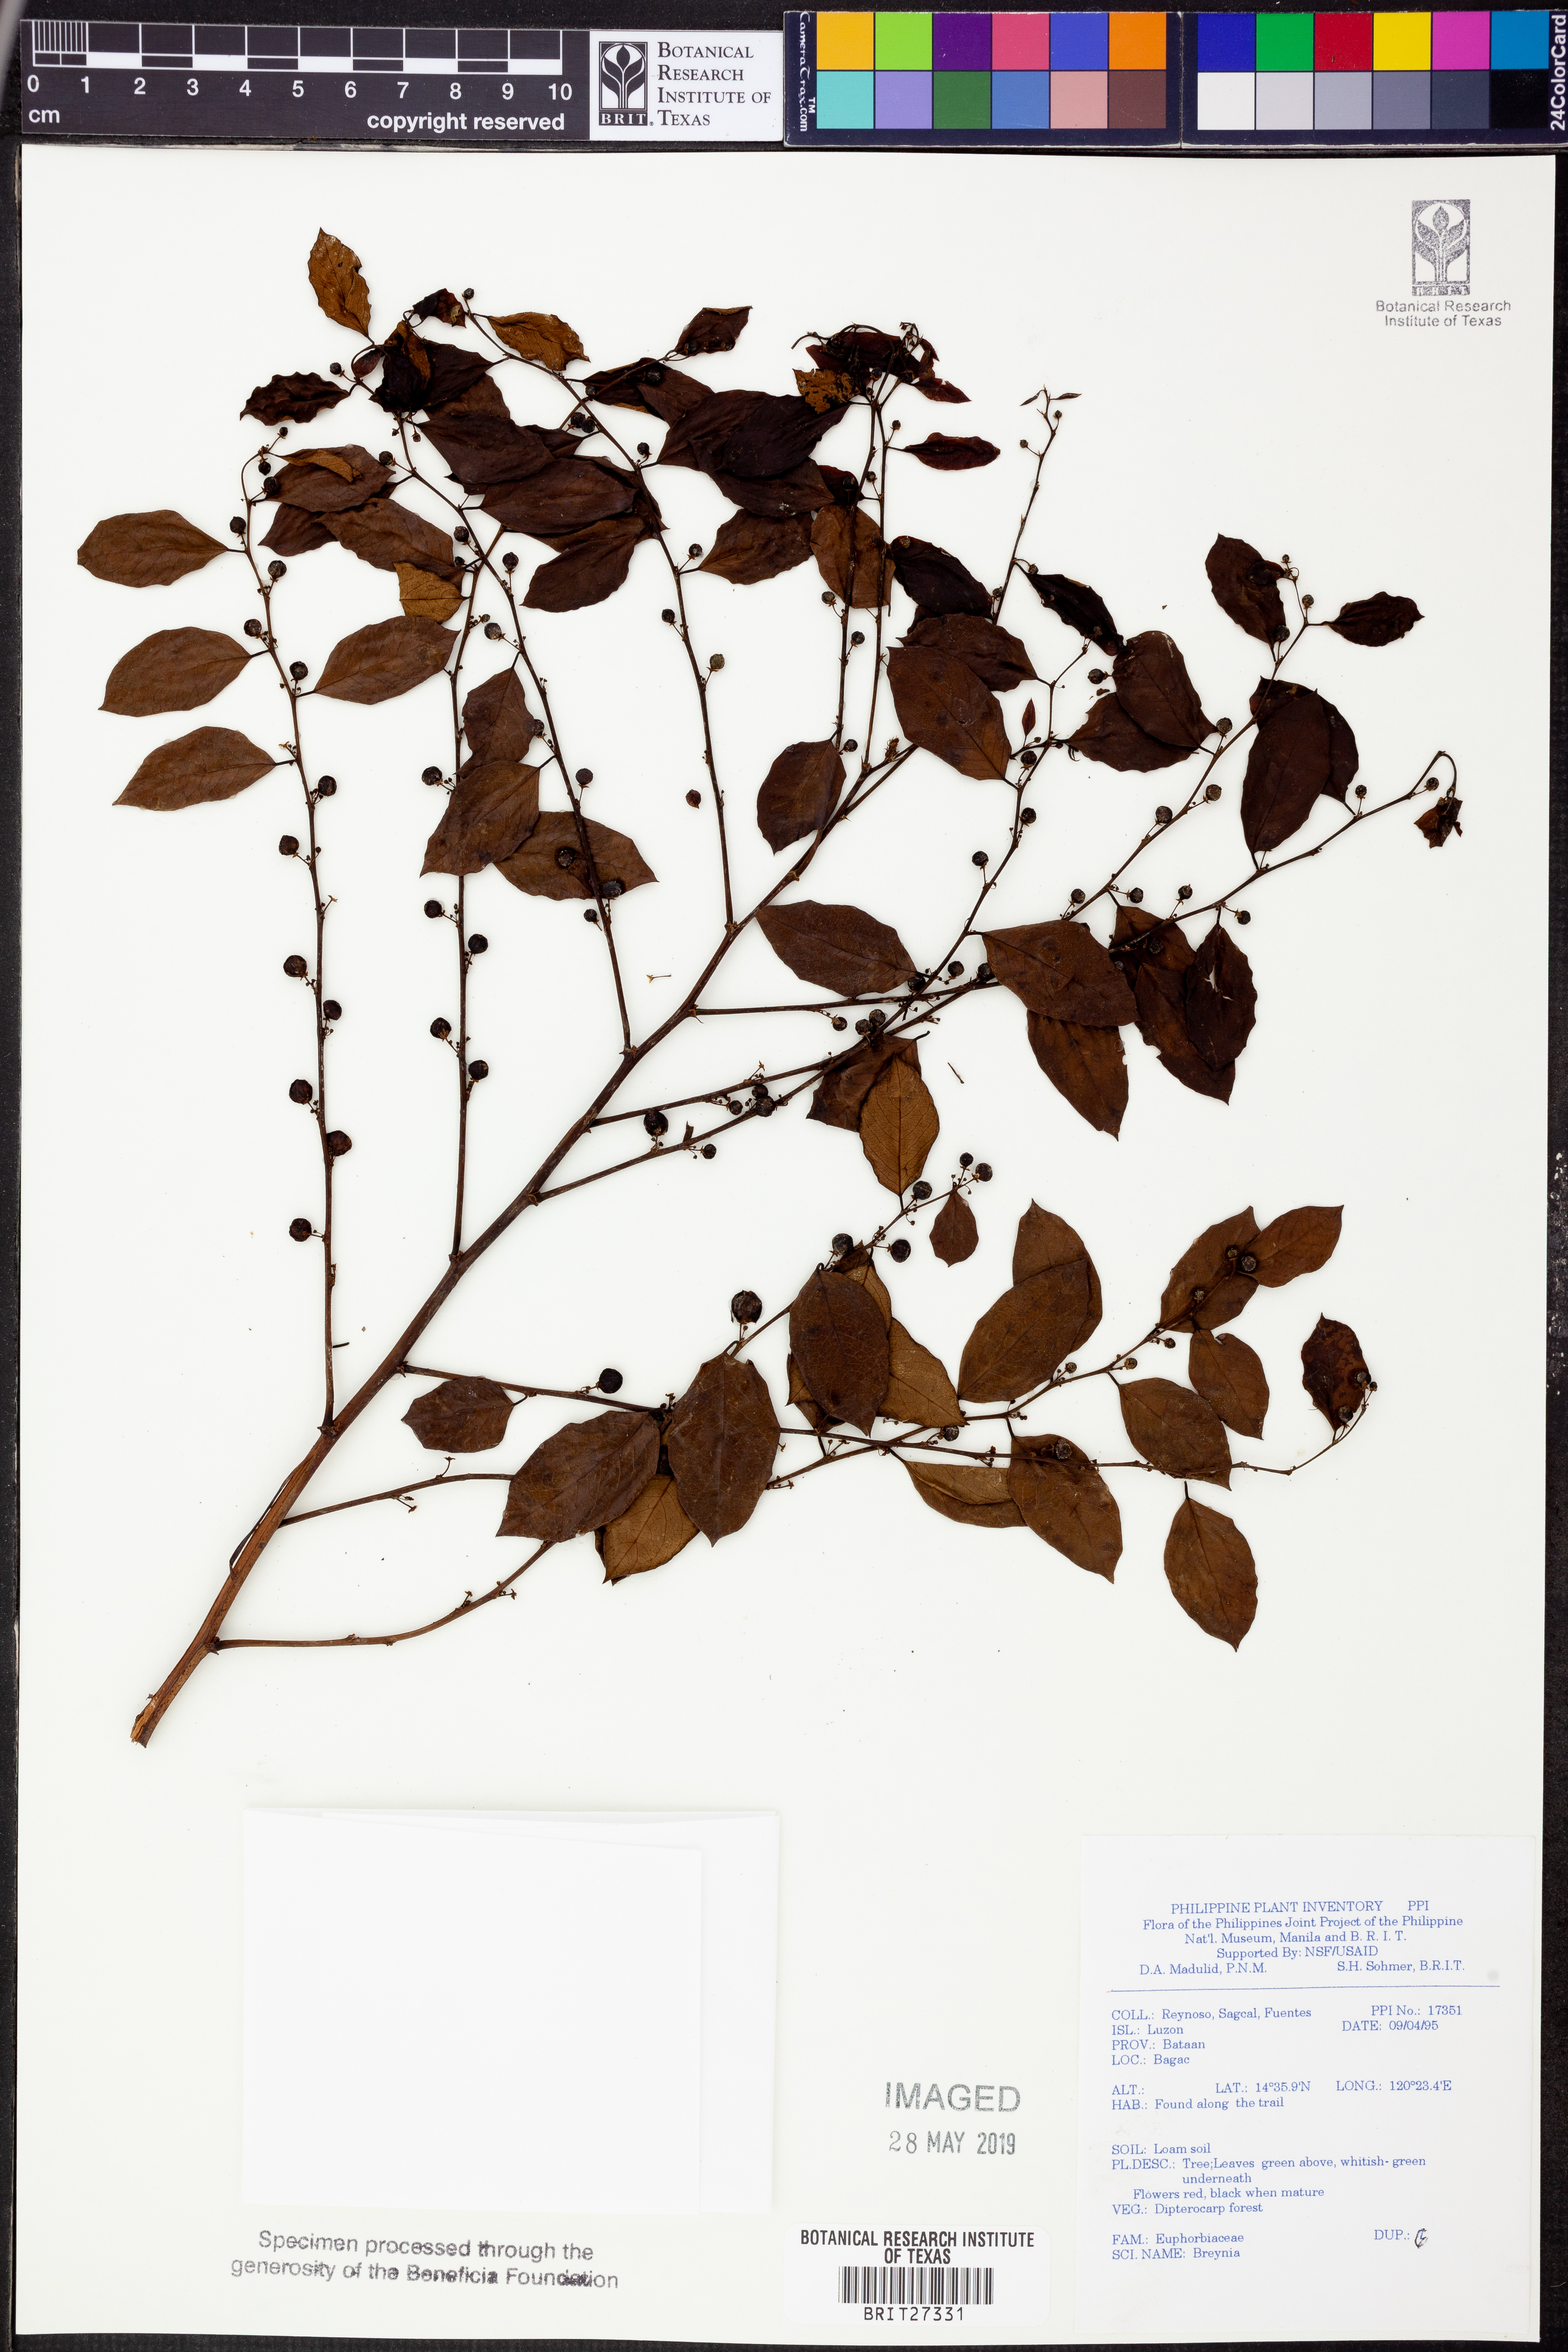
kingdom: Plantae
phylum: Tracheophyta
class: Magnoliopsida
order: Malpighiales
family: Phyllanthaceae
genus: Breynia
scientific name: Breynia
